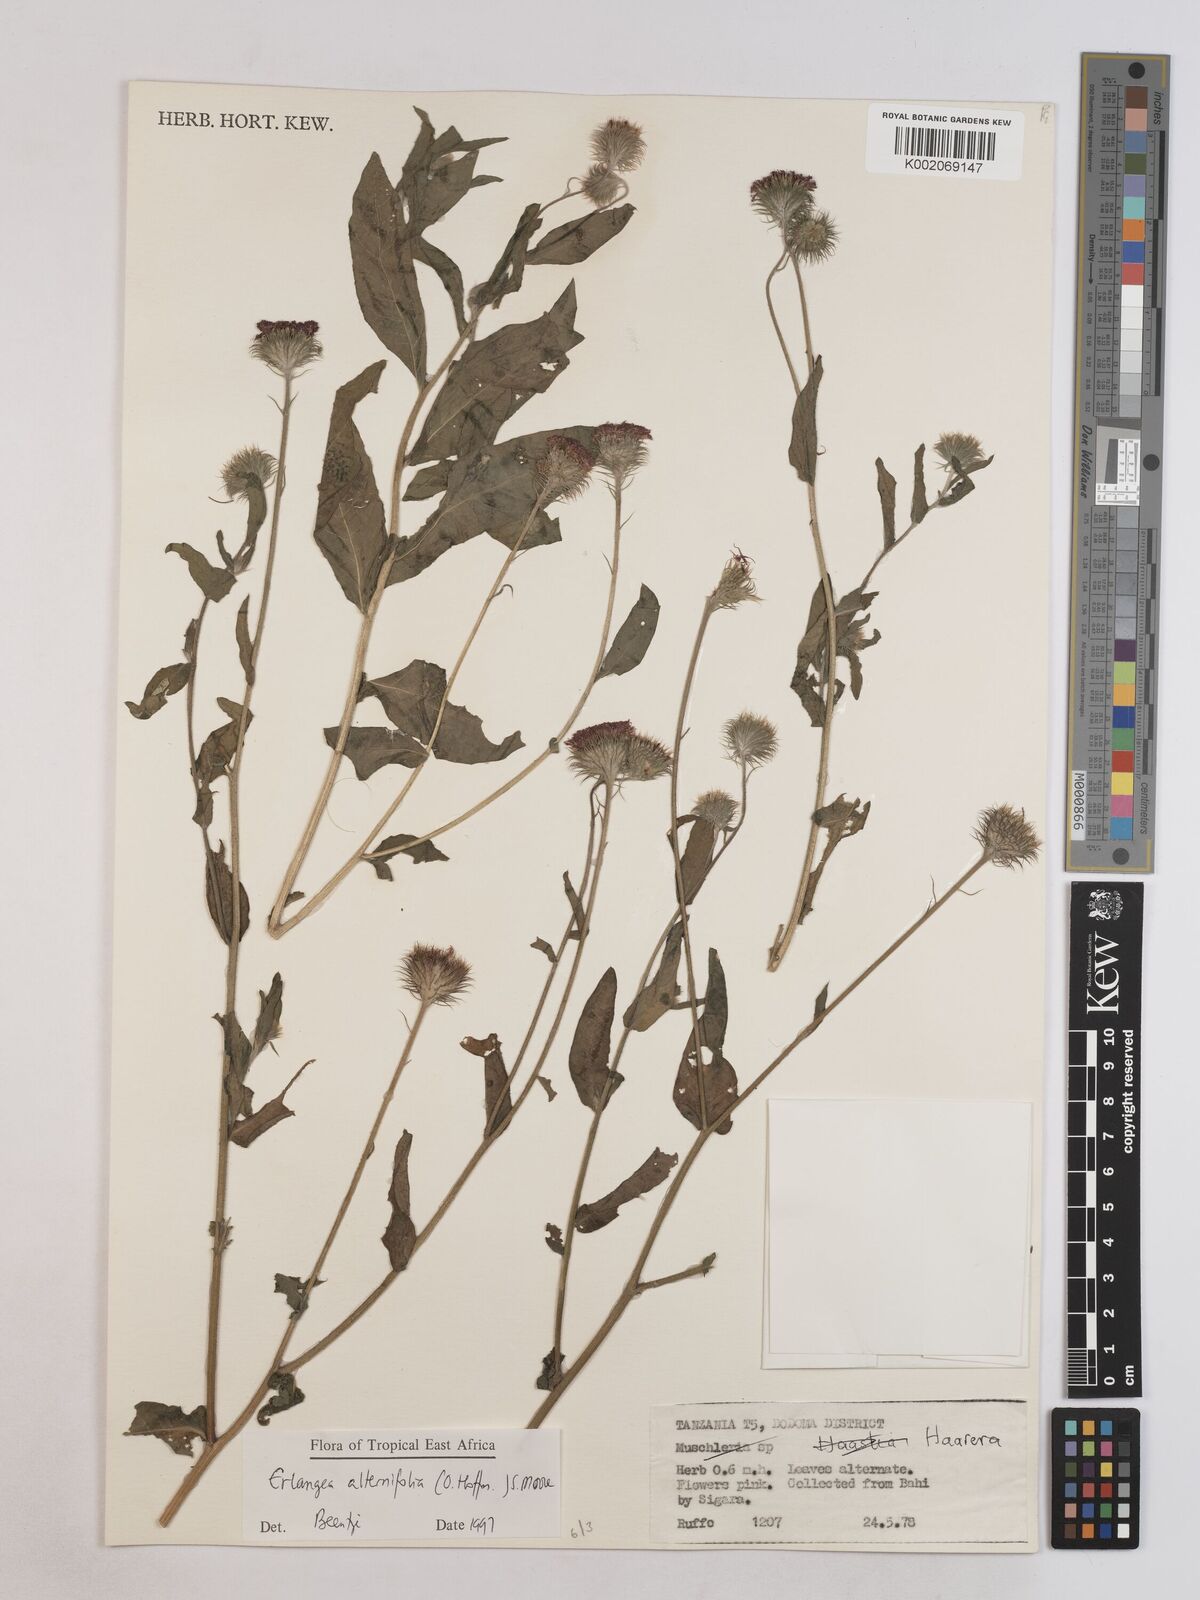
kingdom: Plantae
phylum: Tracheophyta
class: Magnoliopsida
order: Asterales
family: Asteraceae
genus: Erlangea
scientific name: Erlangea alternifolia
